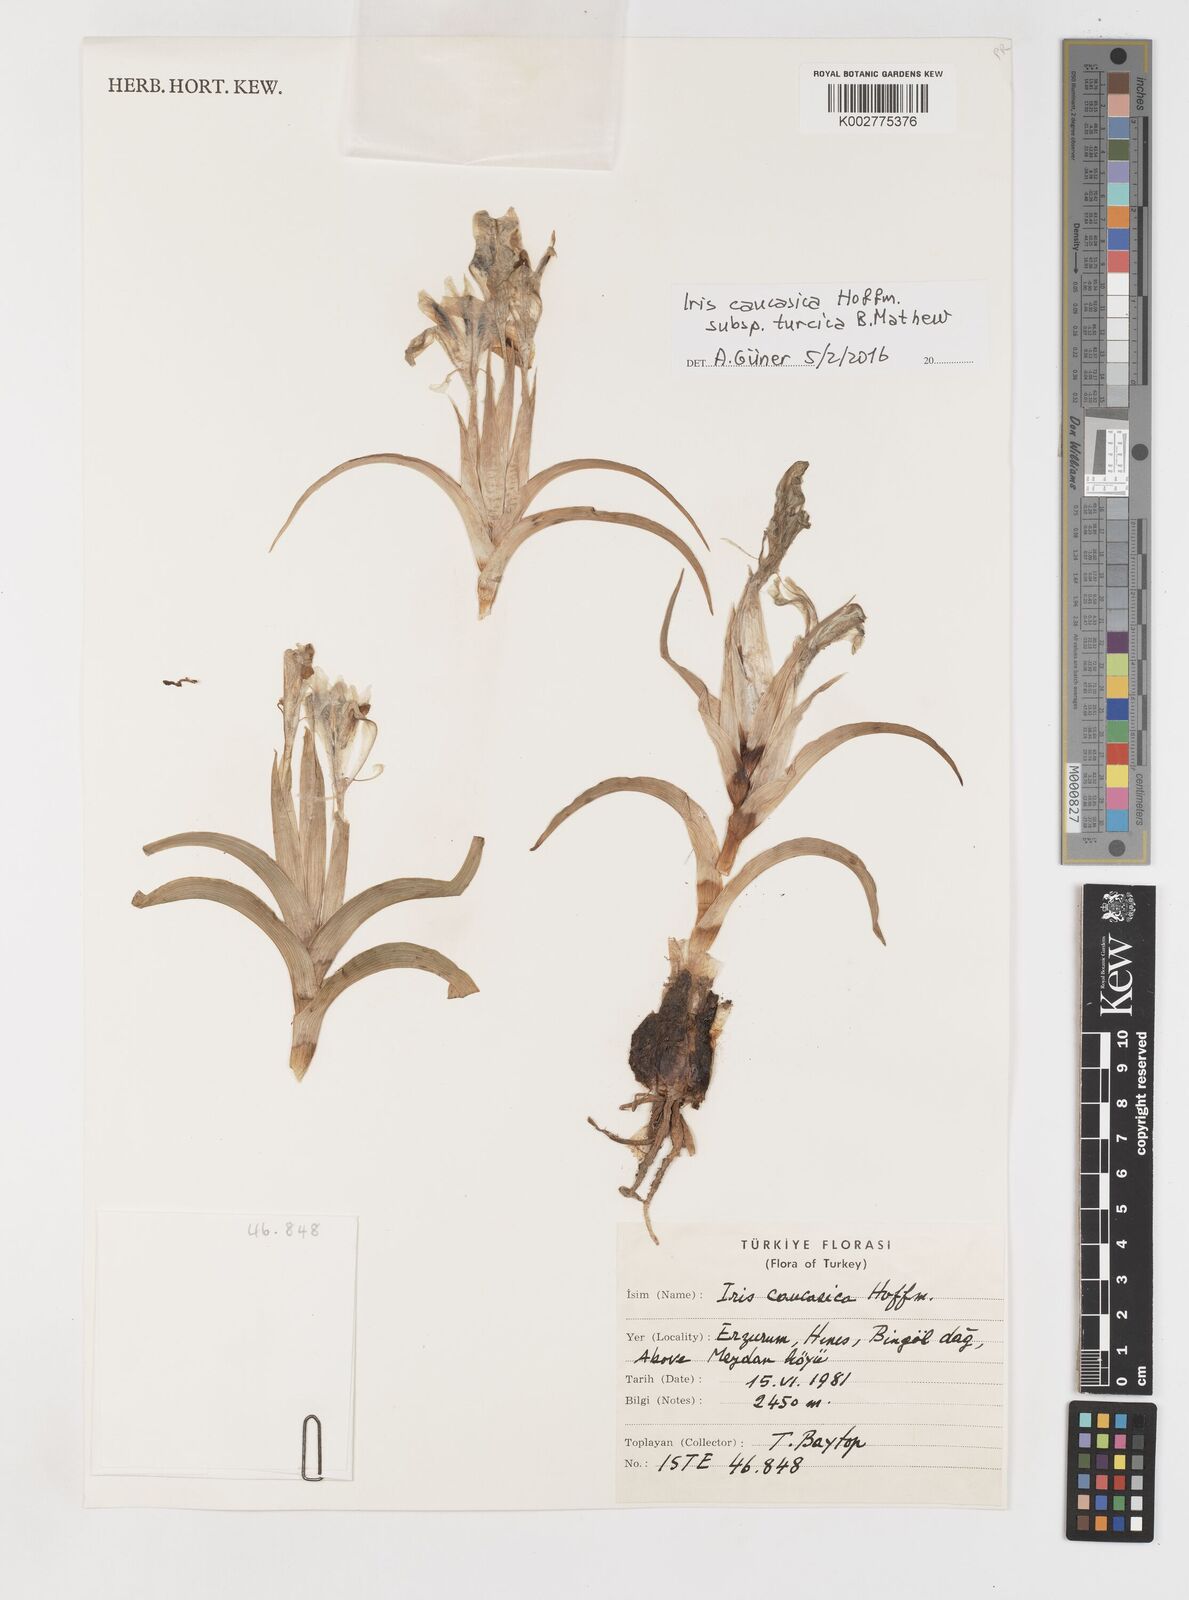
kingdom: Plantae
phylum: Tracheophyta
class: Liliopsida
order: Asparagales
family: Iridaceae
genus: Iris
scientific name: Iris caucasica
